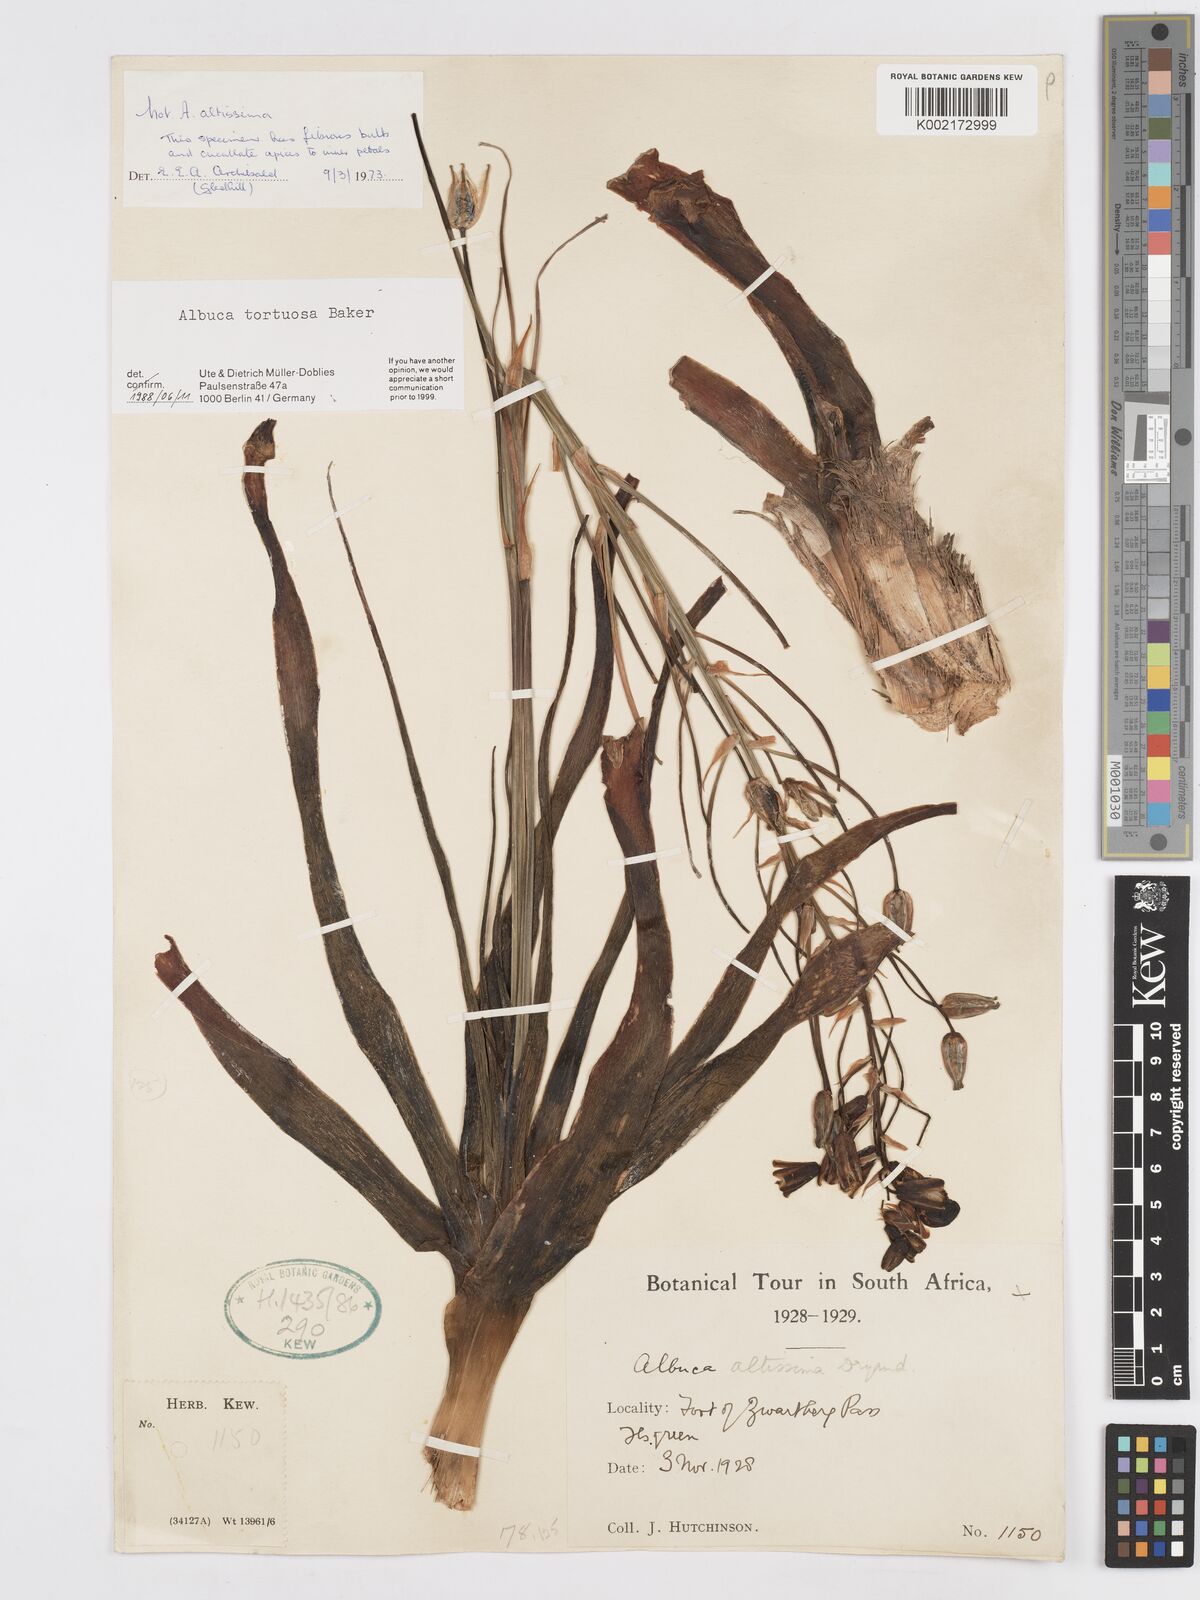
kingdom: Plantae
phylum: Tracheophyta
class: Liliopsida
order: Asparagales
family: Asparagaceae
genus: Albuca
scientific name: Albuca tortuosa
